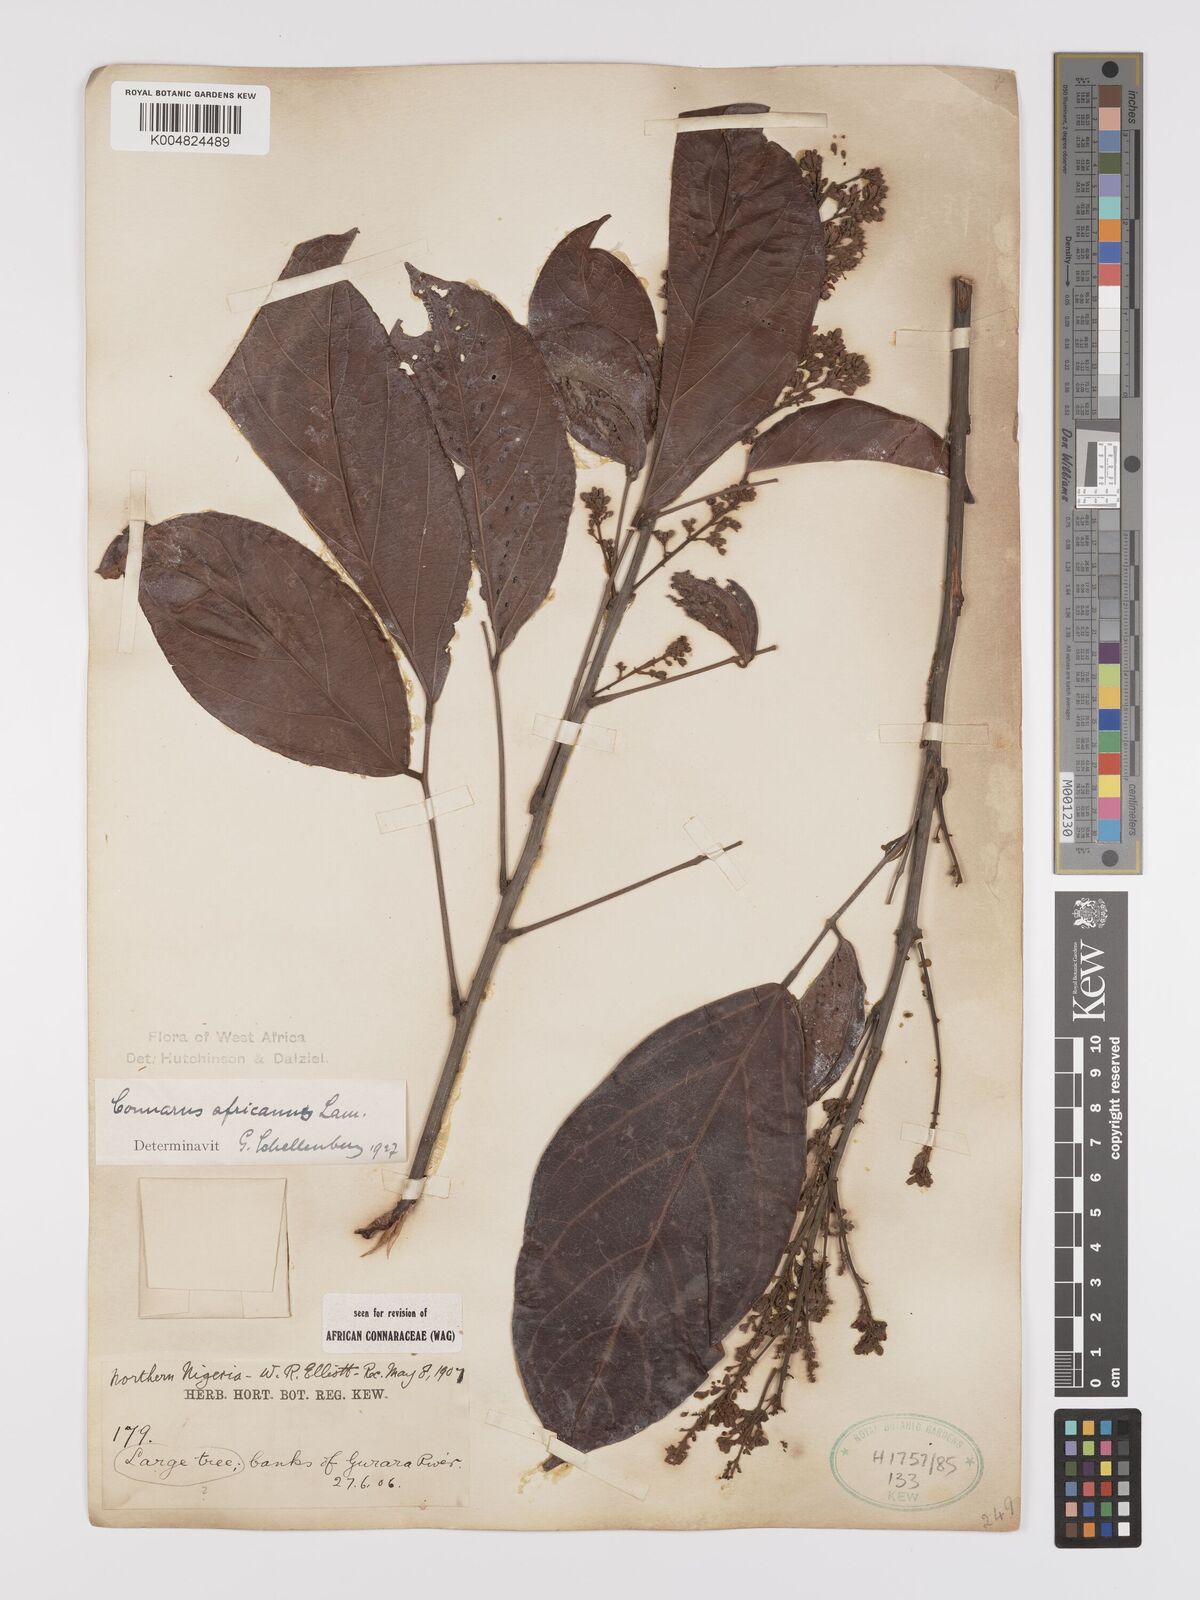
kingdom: Plantae
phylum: Tracheophyta
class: Magnoliopsida
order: Oxalidales
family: Connaraceae
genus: Connarus
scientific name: Connarus africanus
